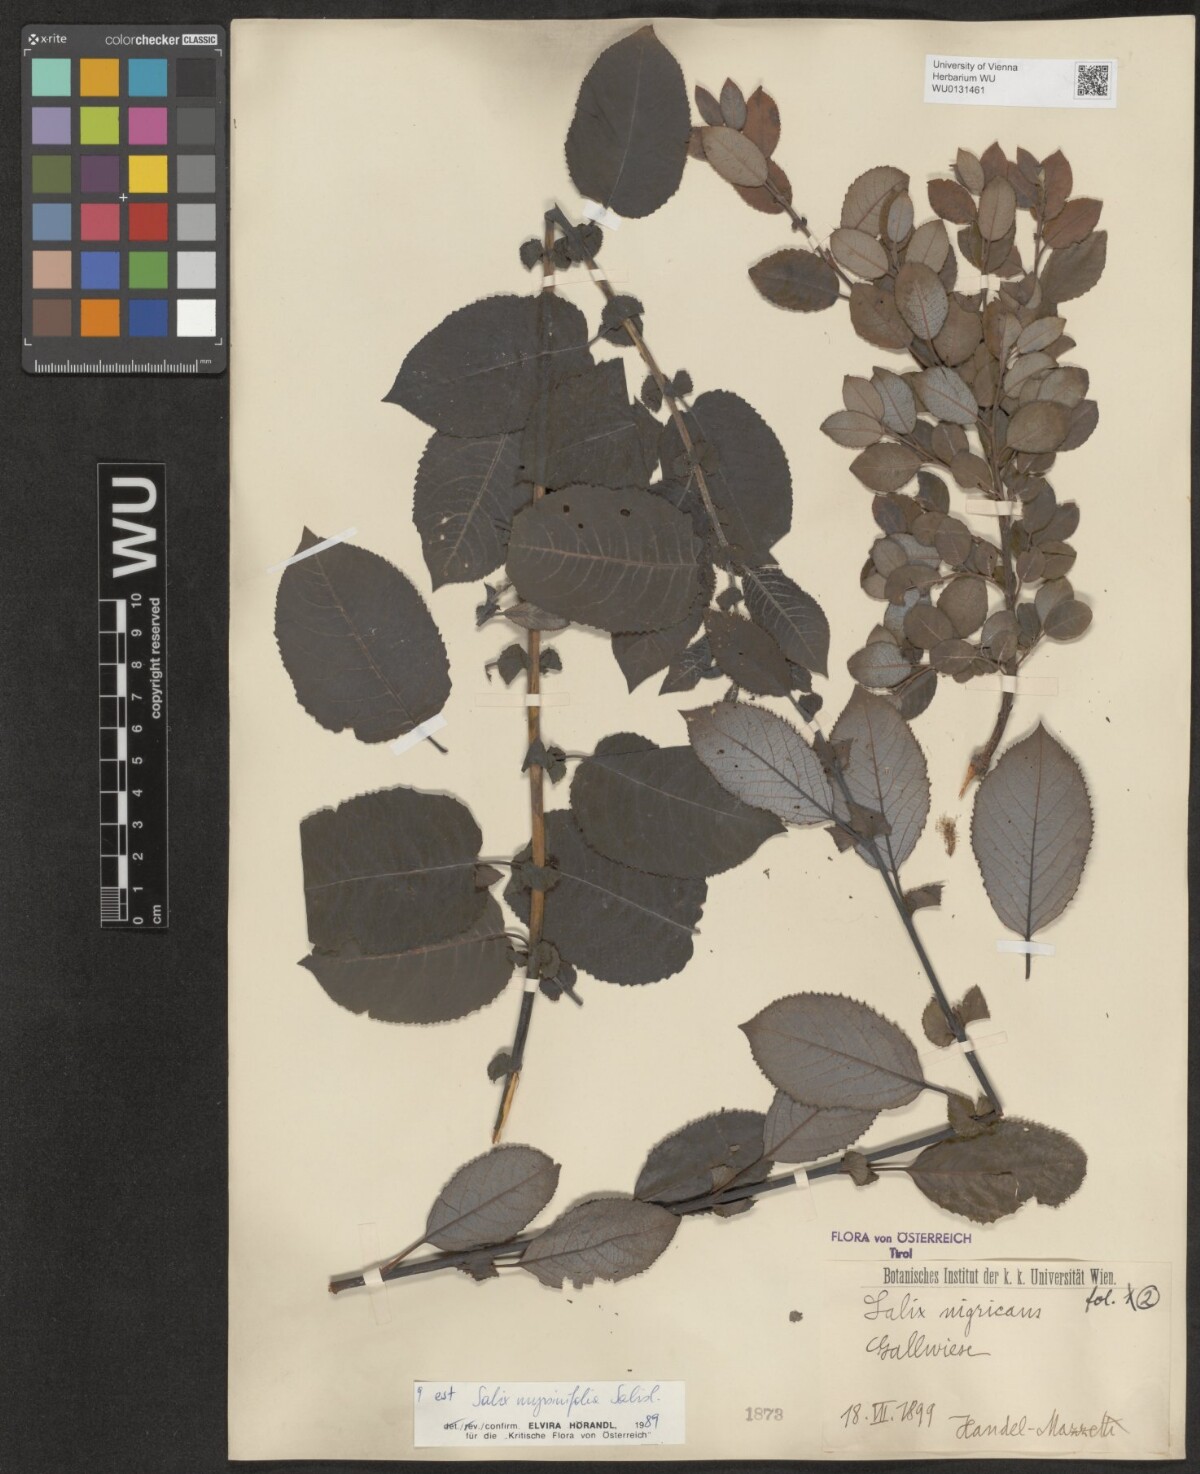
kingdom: Plantae
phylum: Tracheophyta
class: Magnoliopsida
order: Malpighiales
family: Salicaceae
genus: Salix
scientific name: Salix myrsinifolia
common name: Dark-leaved willow
